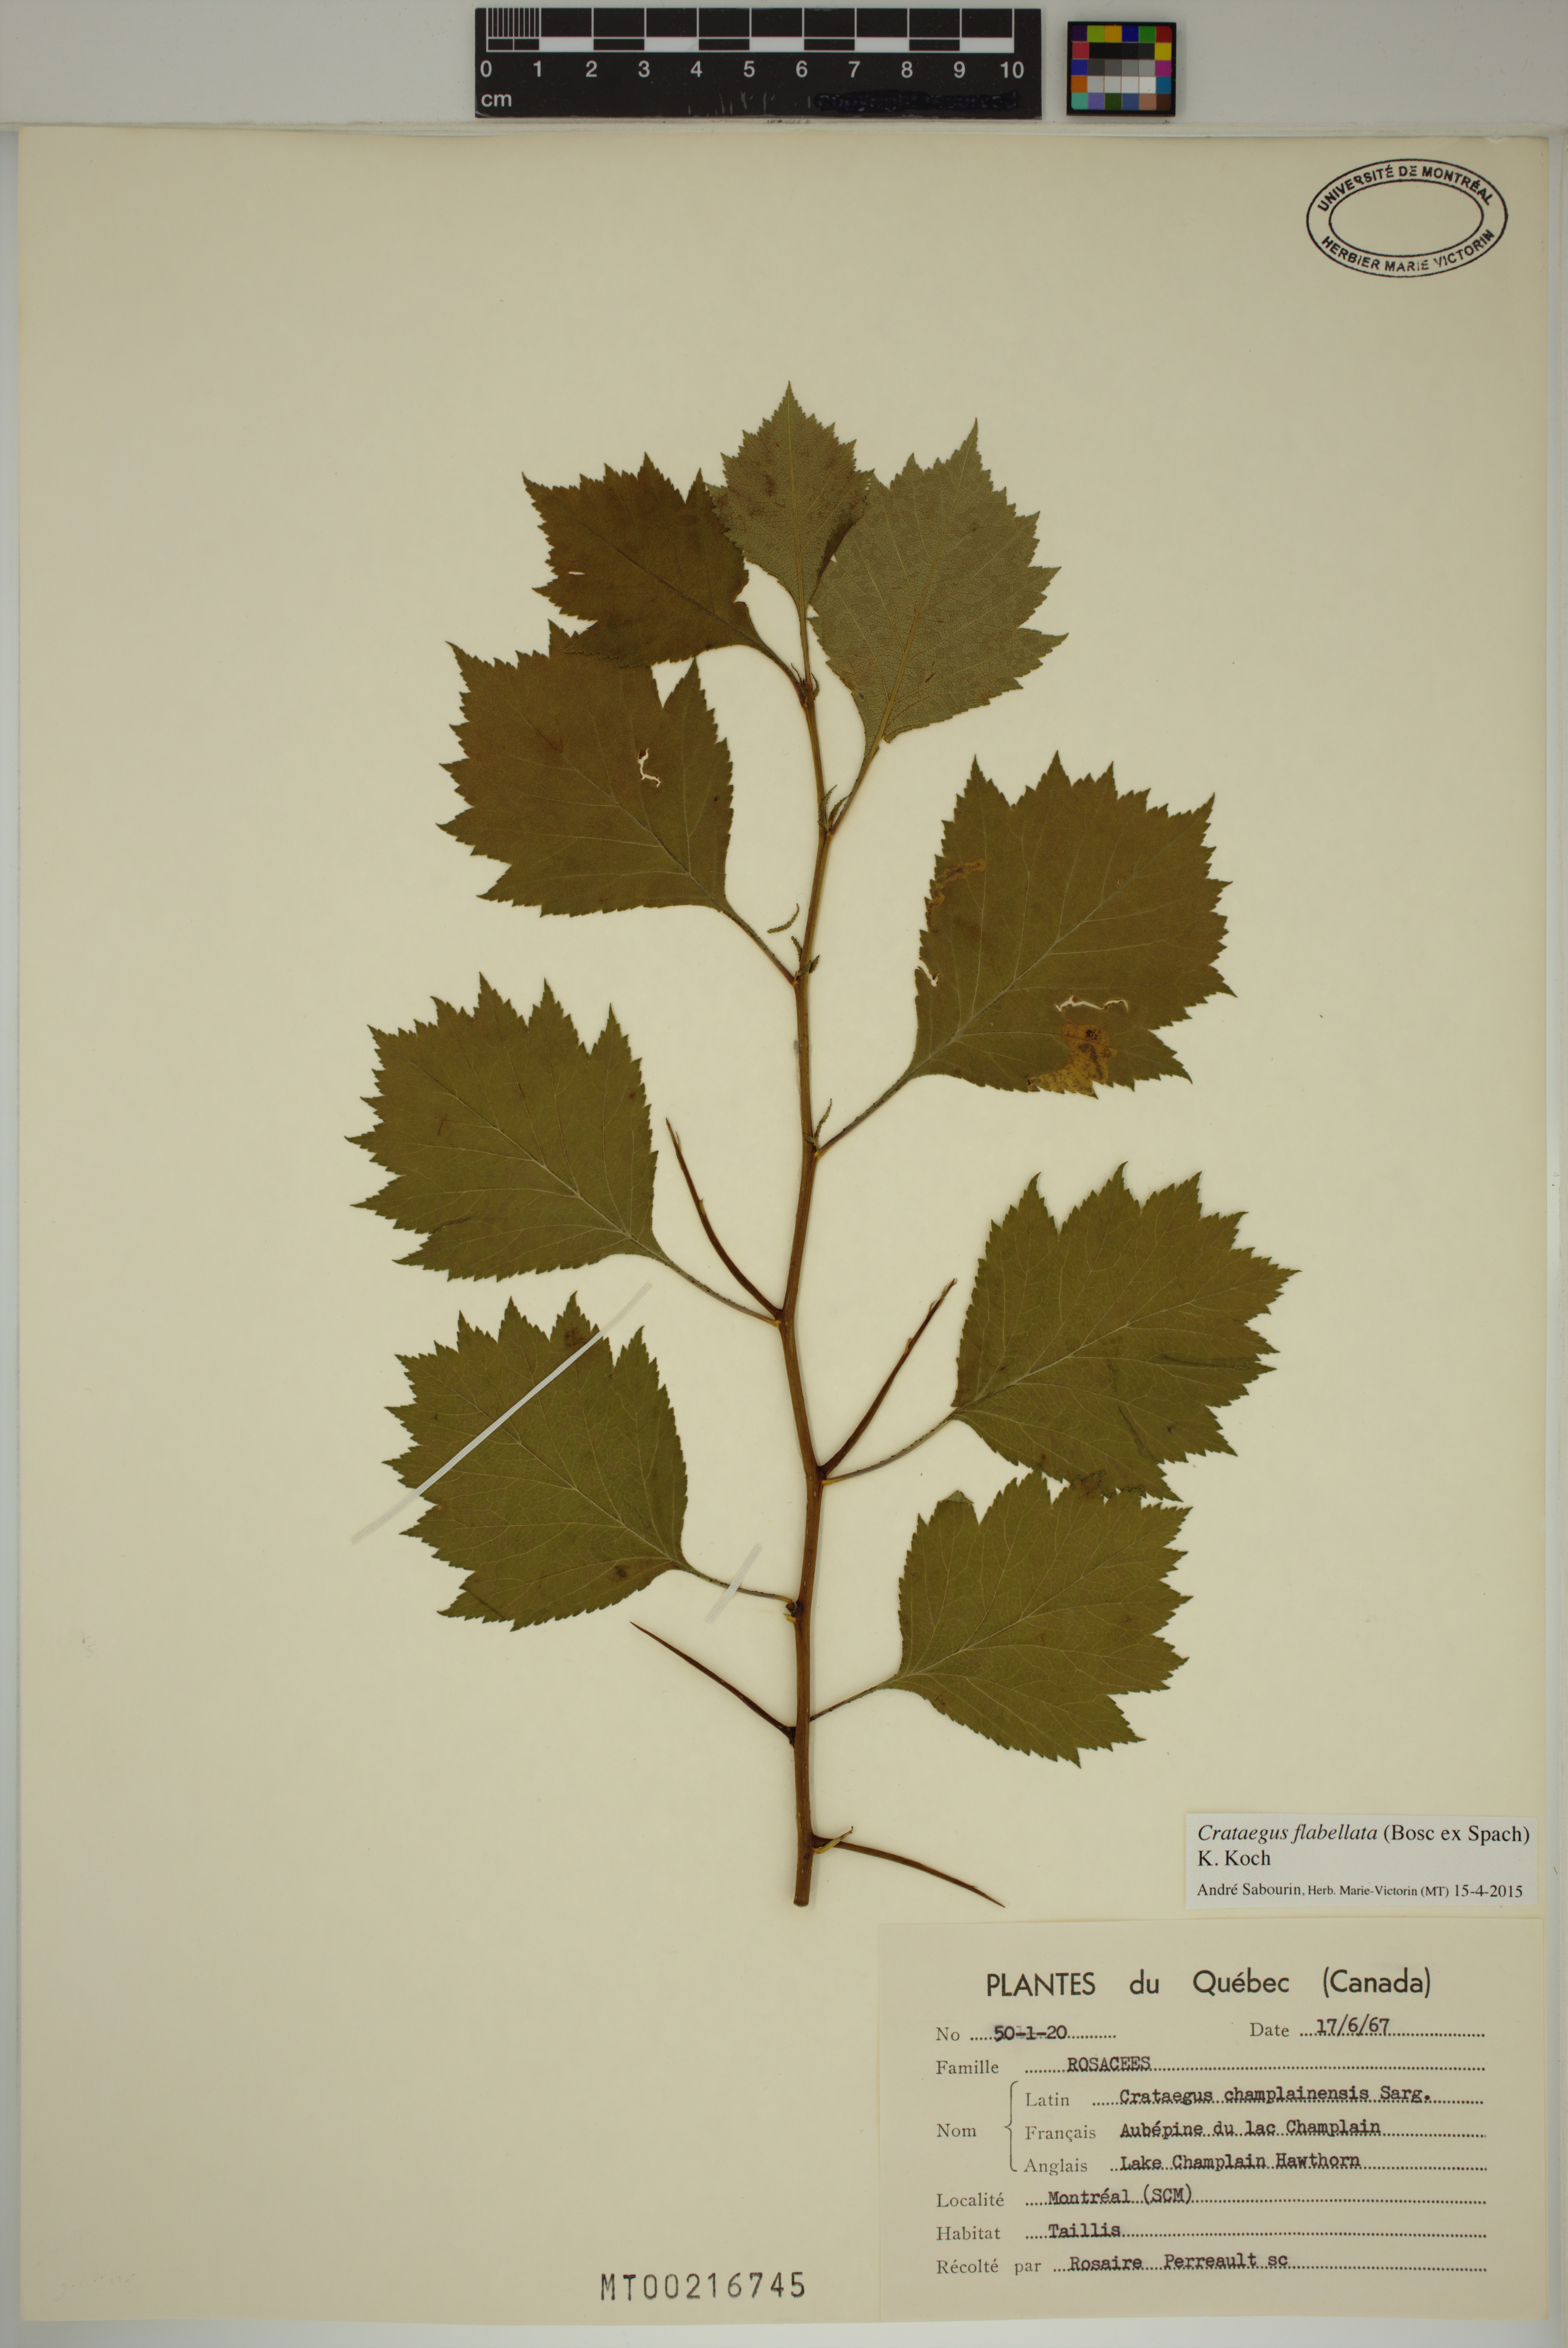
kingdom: Plantae
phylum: Tracheophyta
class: Magnoliopsida
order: Rosales
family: Rosaceae
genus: Crataegus
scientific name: Crataegus schuettei
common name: Schuette's hawthorn
